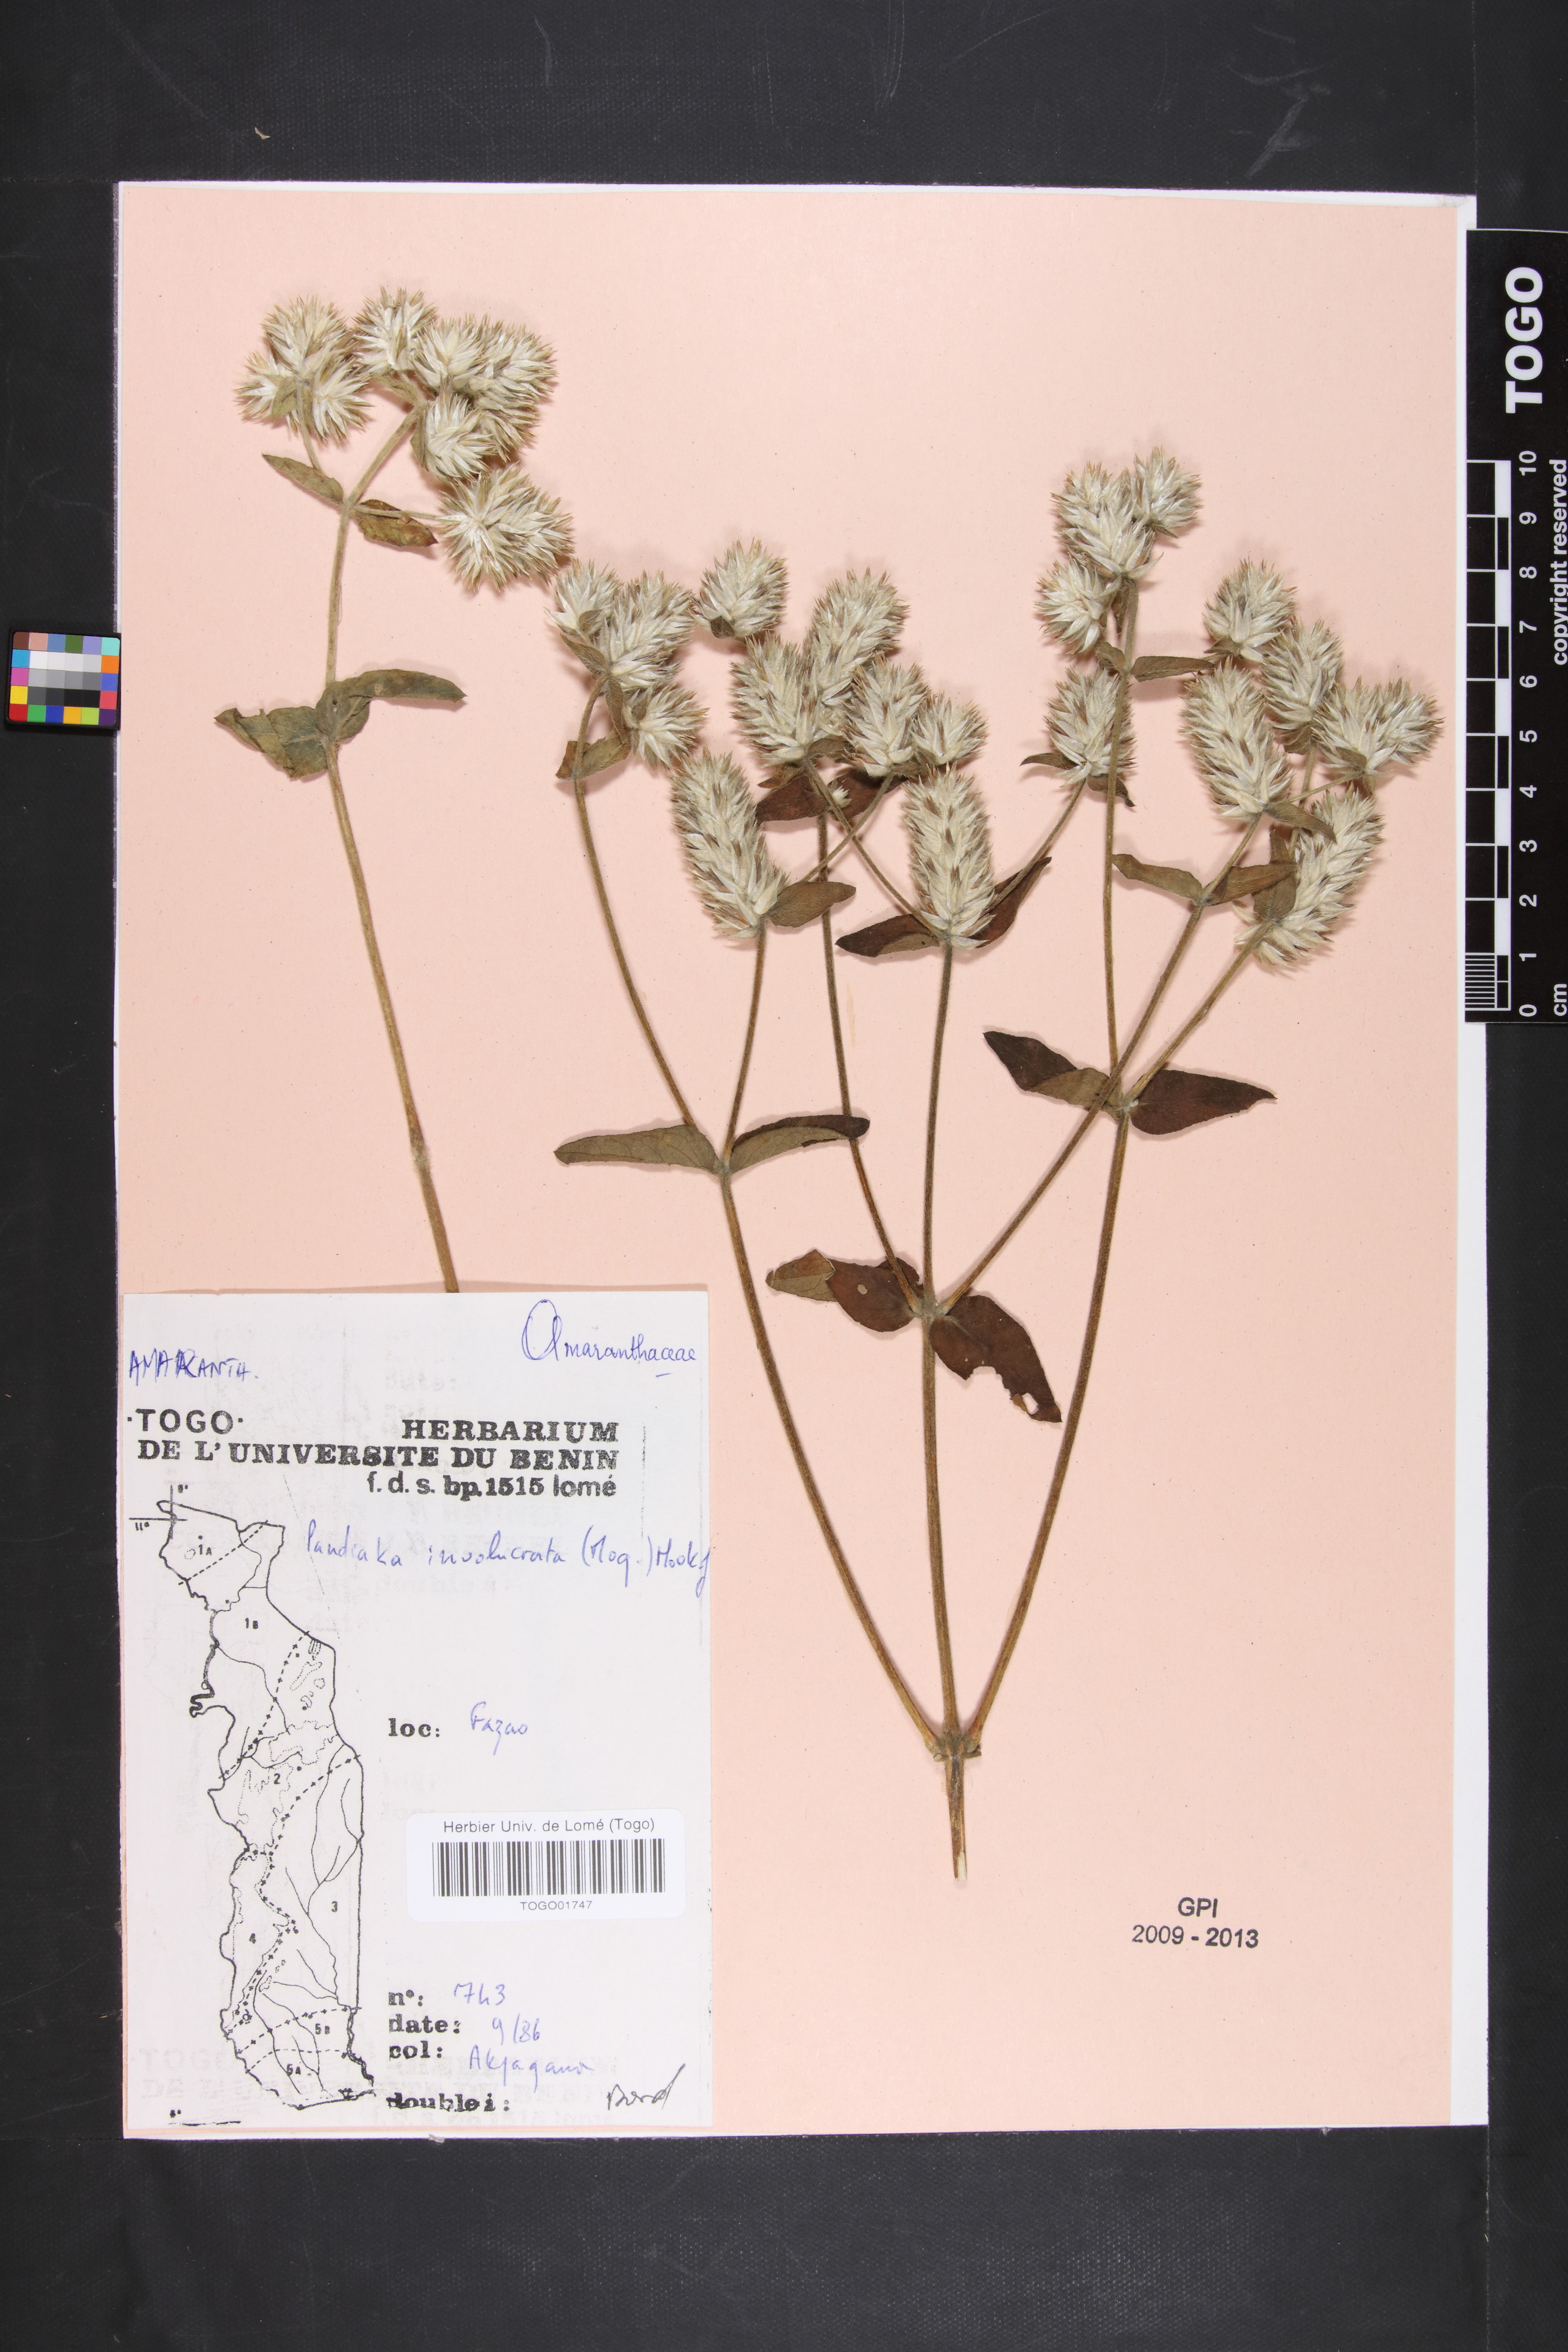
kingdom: Plantae
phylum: Tracheophyta
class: Magnoliopsida
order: Caryophyllales
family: Amaranthaceae
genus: Pandiaka
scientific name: Pandiaka involucrata
